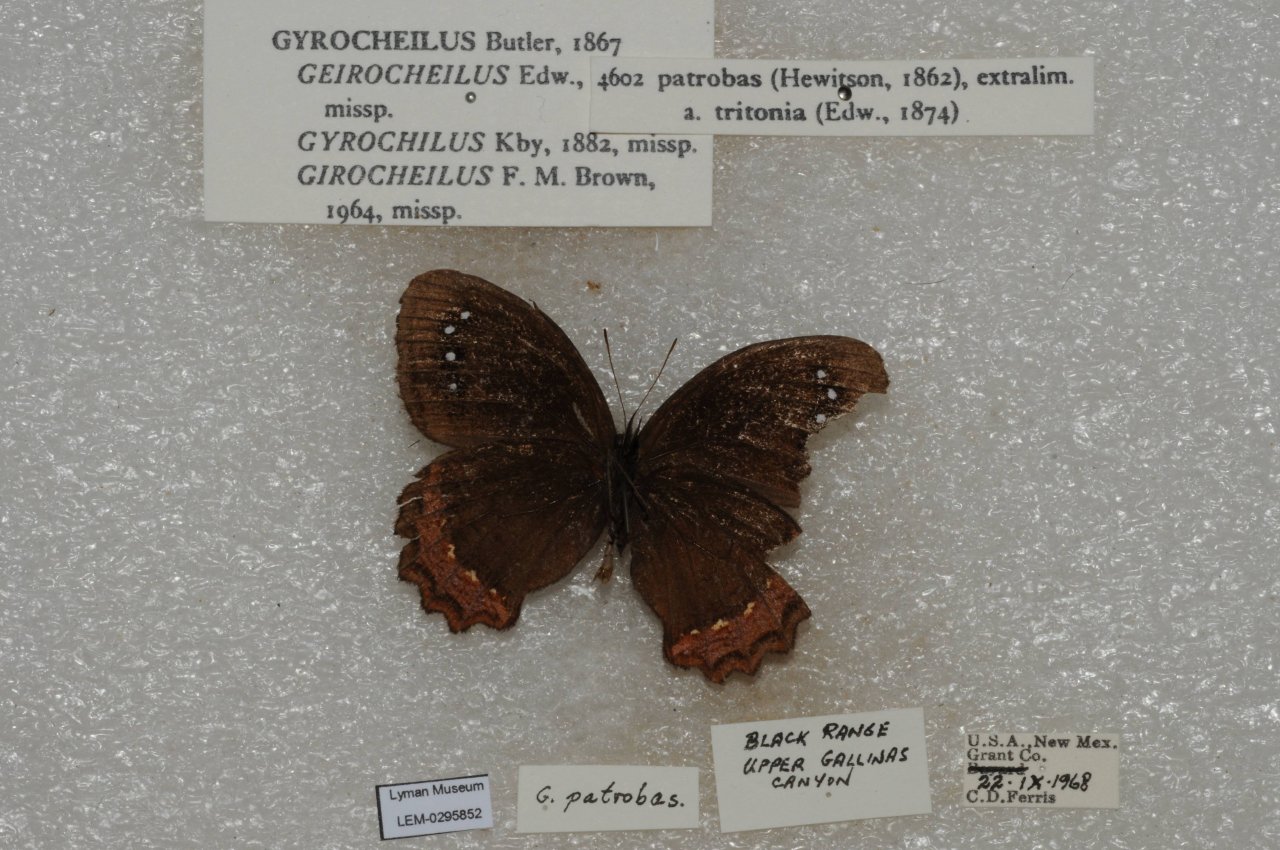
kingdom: Animalia
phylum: Arthropoda
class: Insecta
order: Lepidoptera
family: Nymphalidae
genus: Gyrocheilus
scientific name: Gyrocheilus patrobas
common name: Red-bordered Satyr
